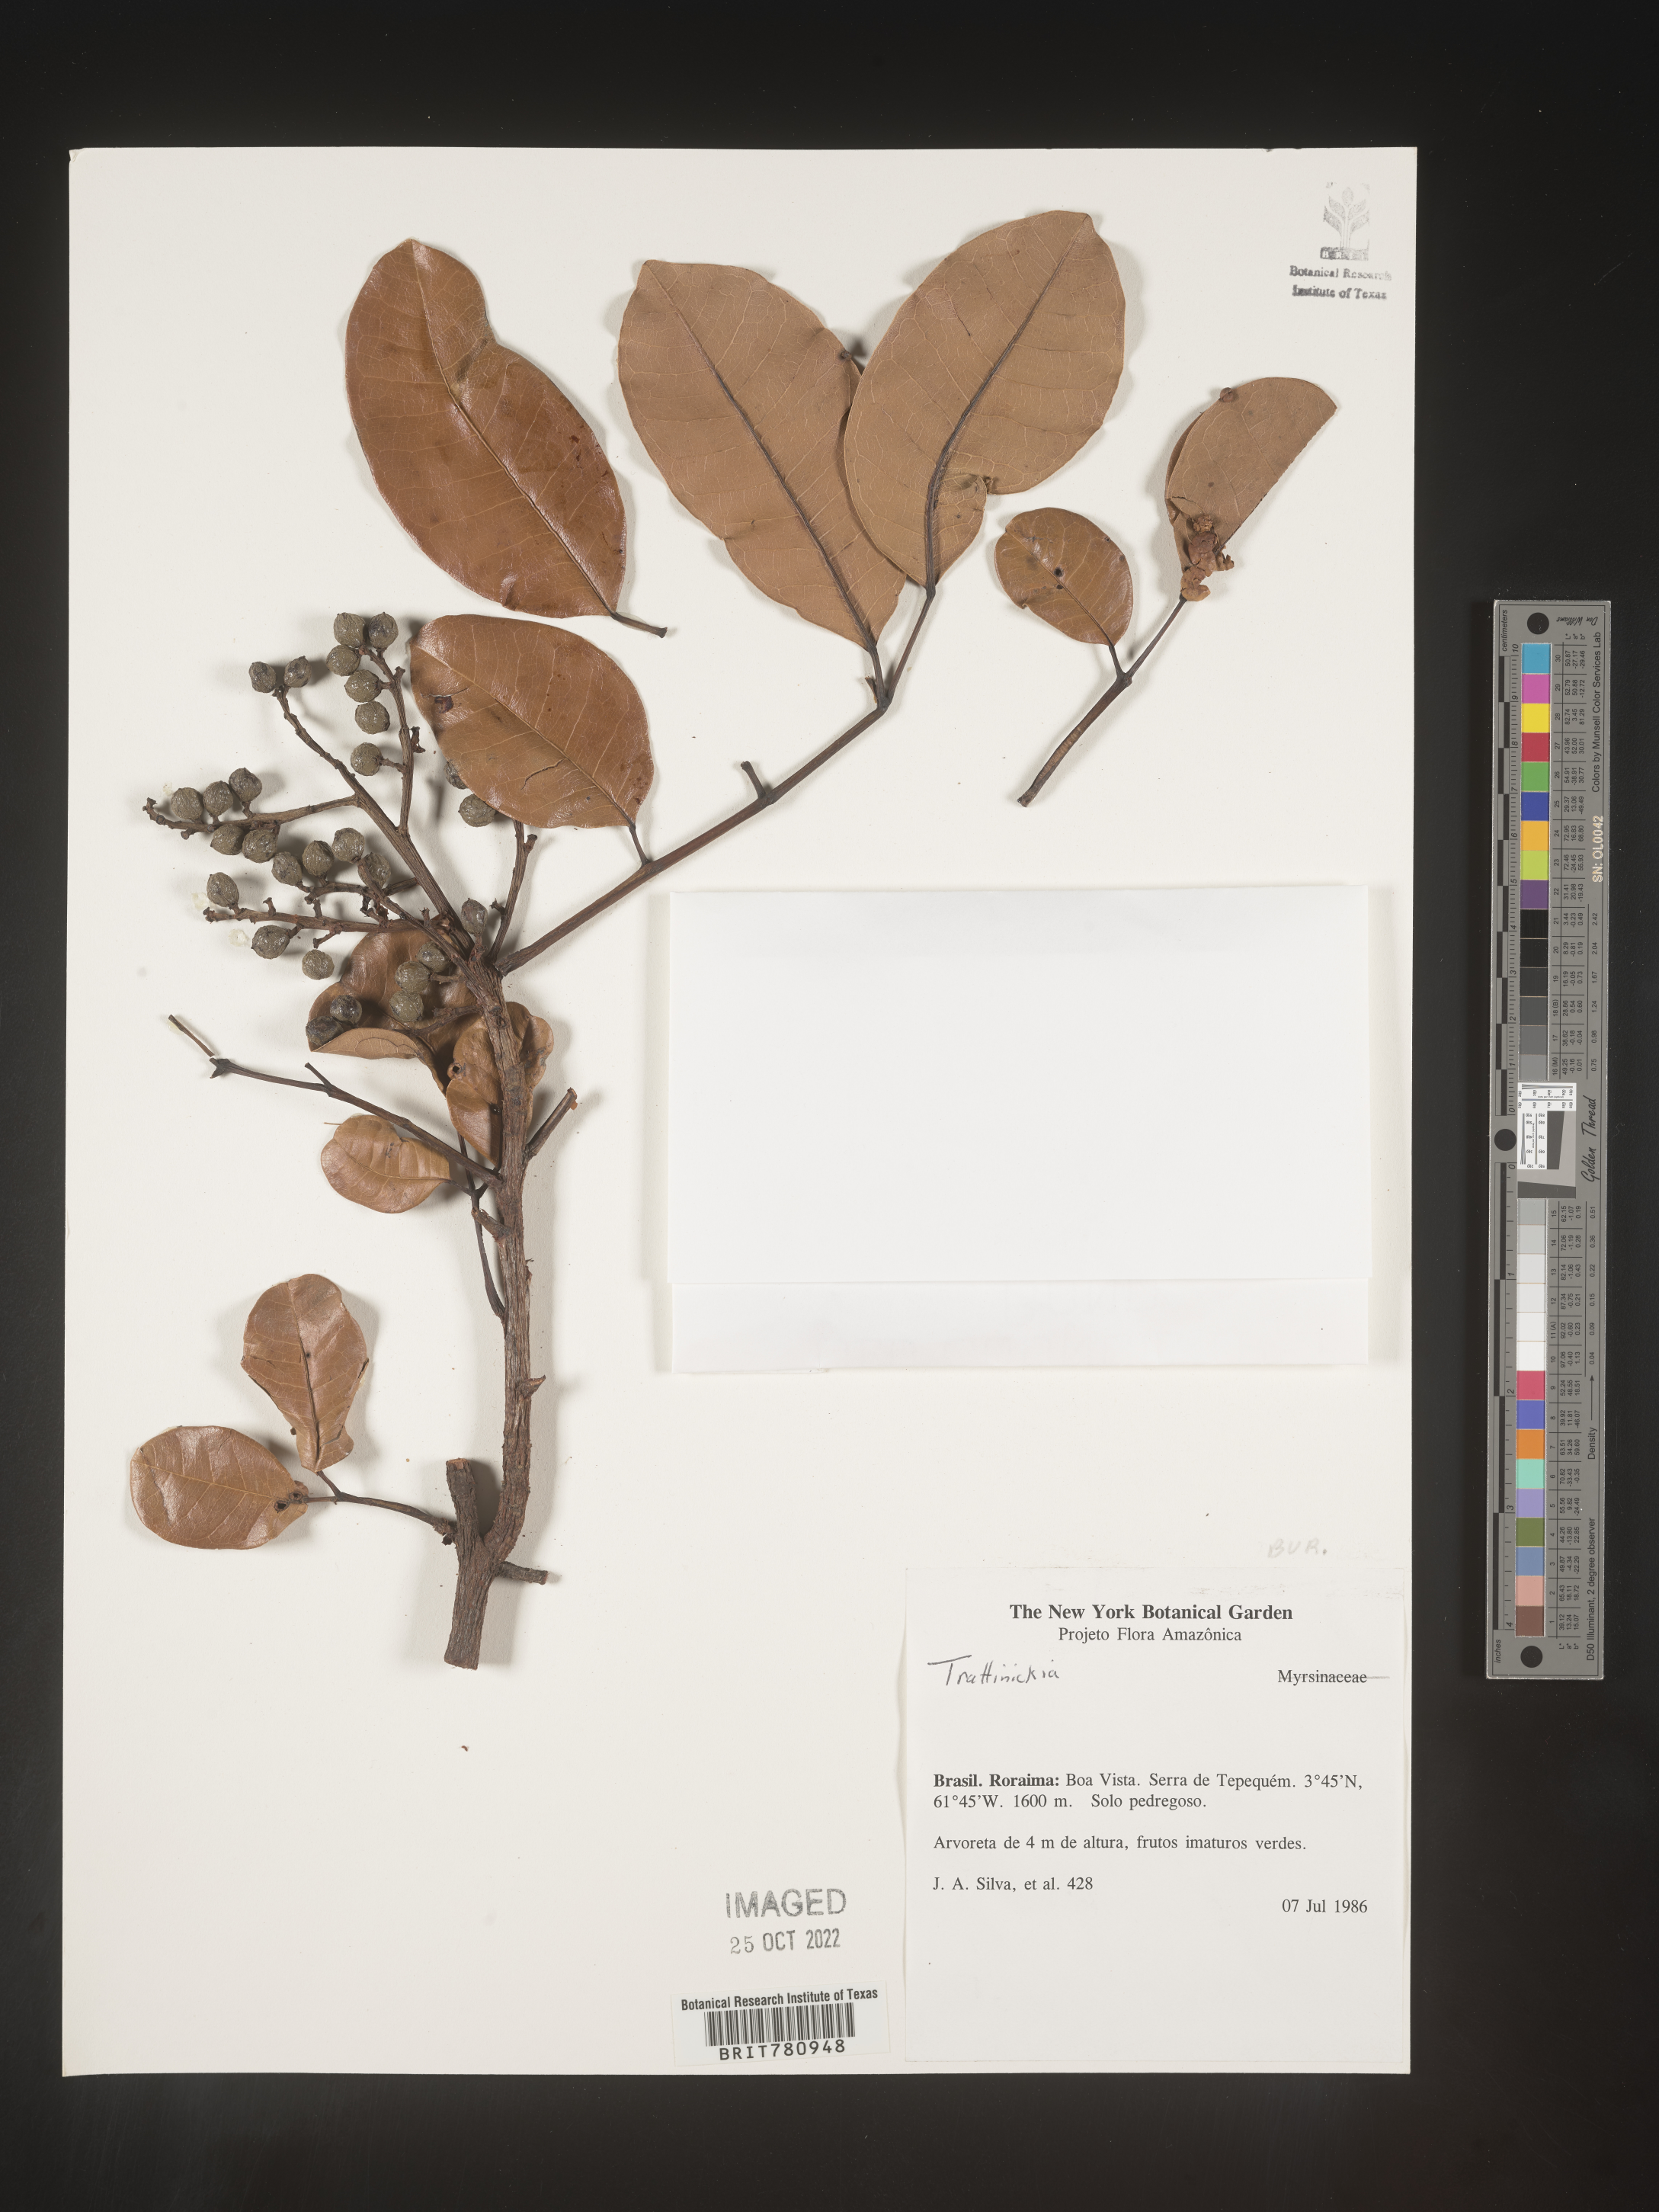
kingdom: Plantae
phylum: Tracheophyta
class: Magnoliopsida
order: Sapindales
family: Burseraceae
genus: Trattinnickia
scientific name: Trattinnickia
